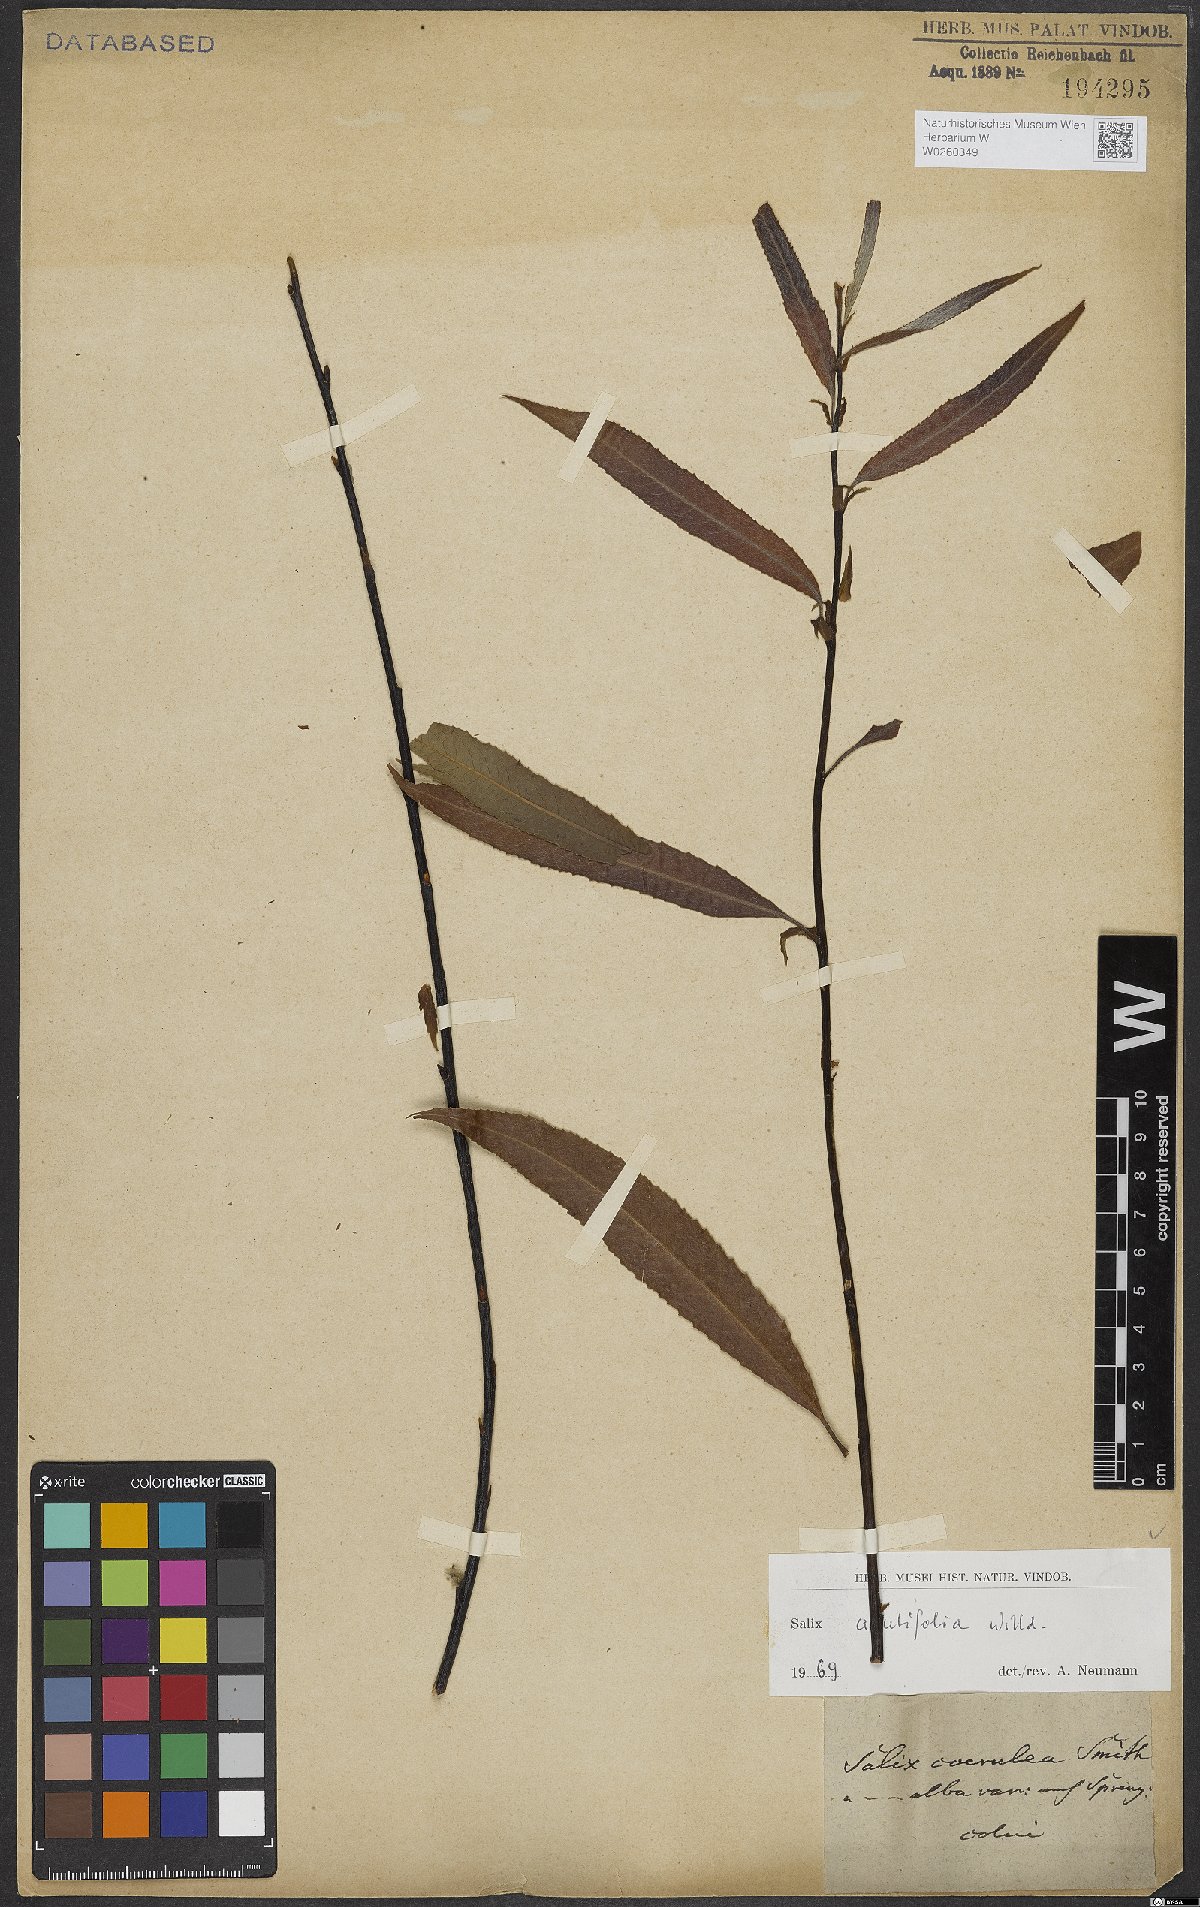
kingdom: Plantae
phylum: Tracheophyta
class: Magnoliopsida
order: Malpighiales
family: Salicaceae
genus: Salix
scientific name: Salix acutifolia
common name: Siberian violet-willow
